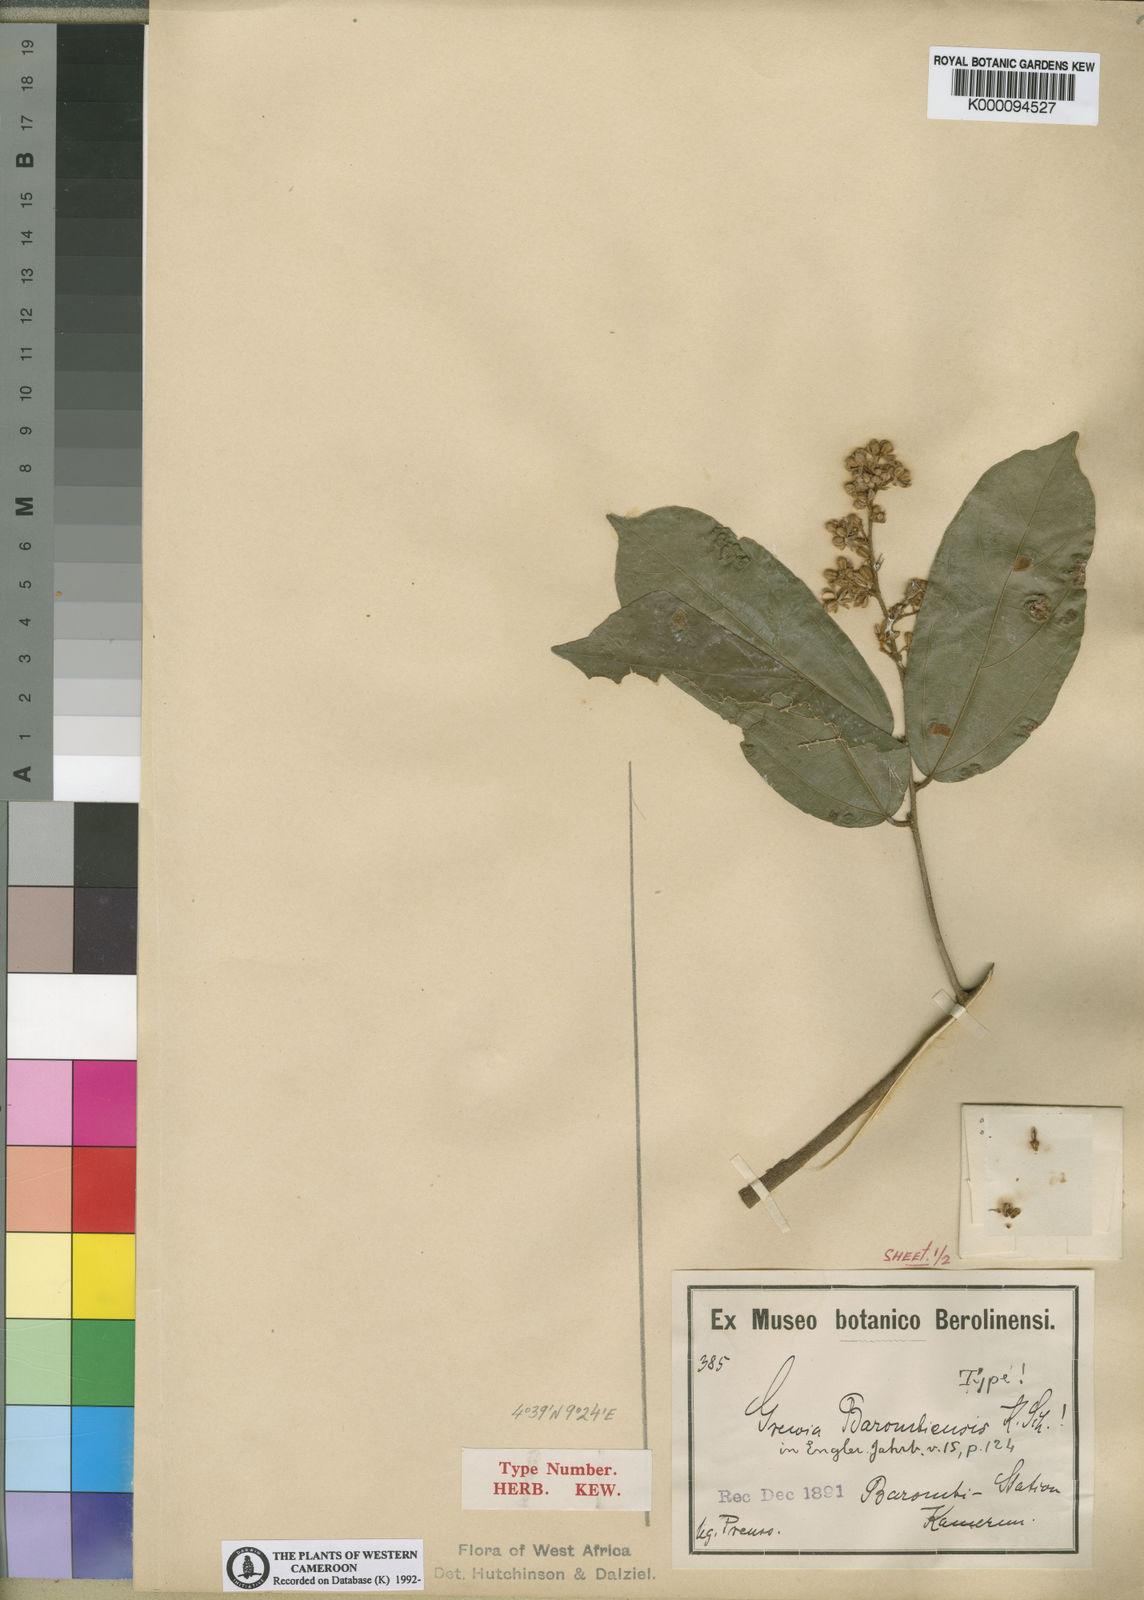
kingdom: Plantae
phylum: Tracheophyta
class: Magnoliopsida
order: Malvales
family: Malvaceae
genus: Microcos
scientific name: Microcos barombiensis
